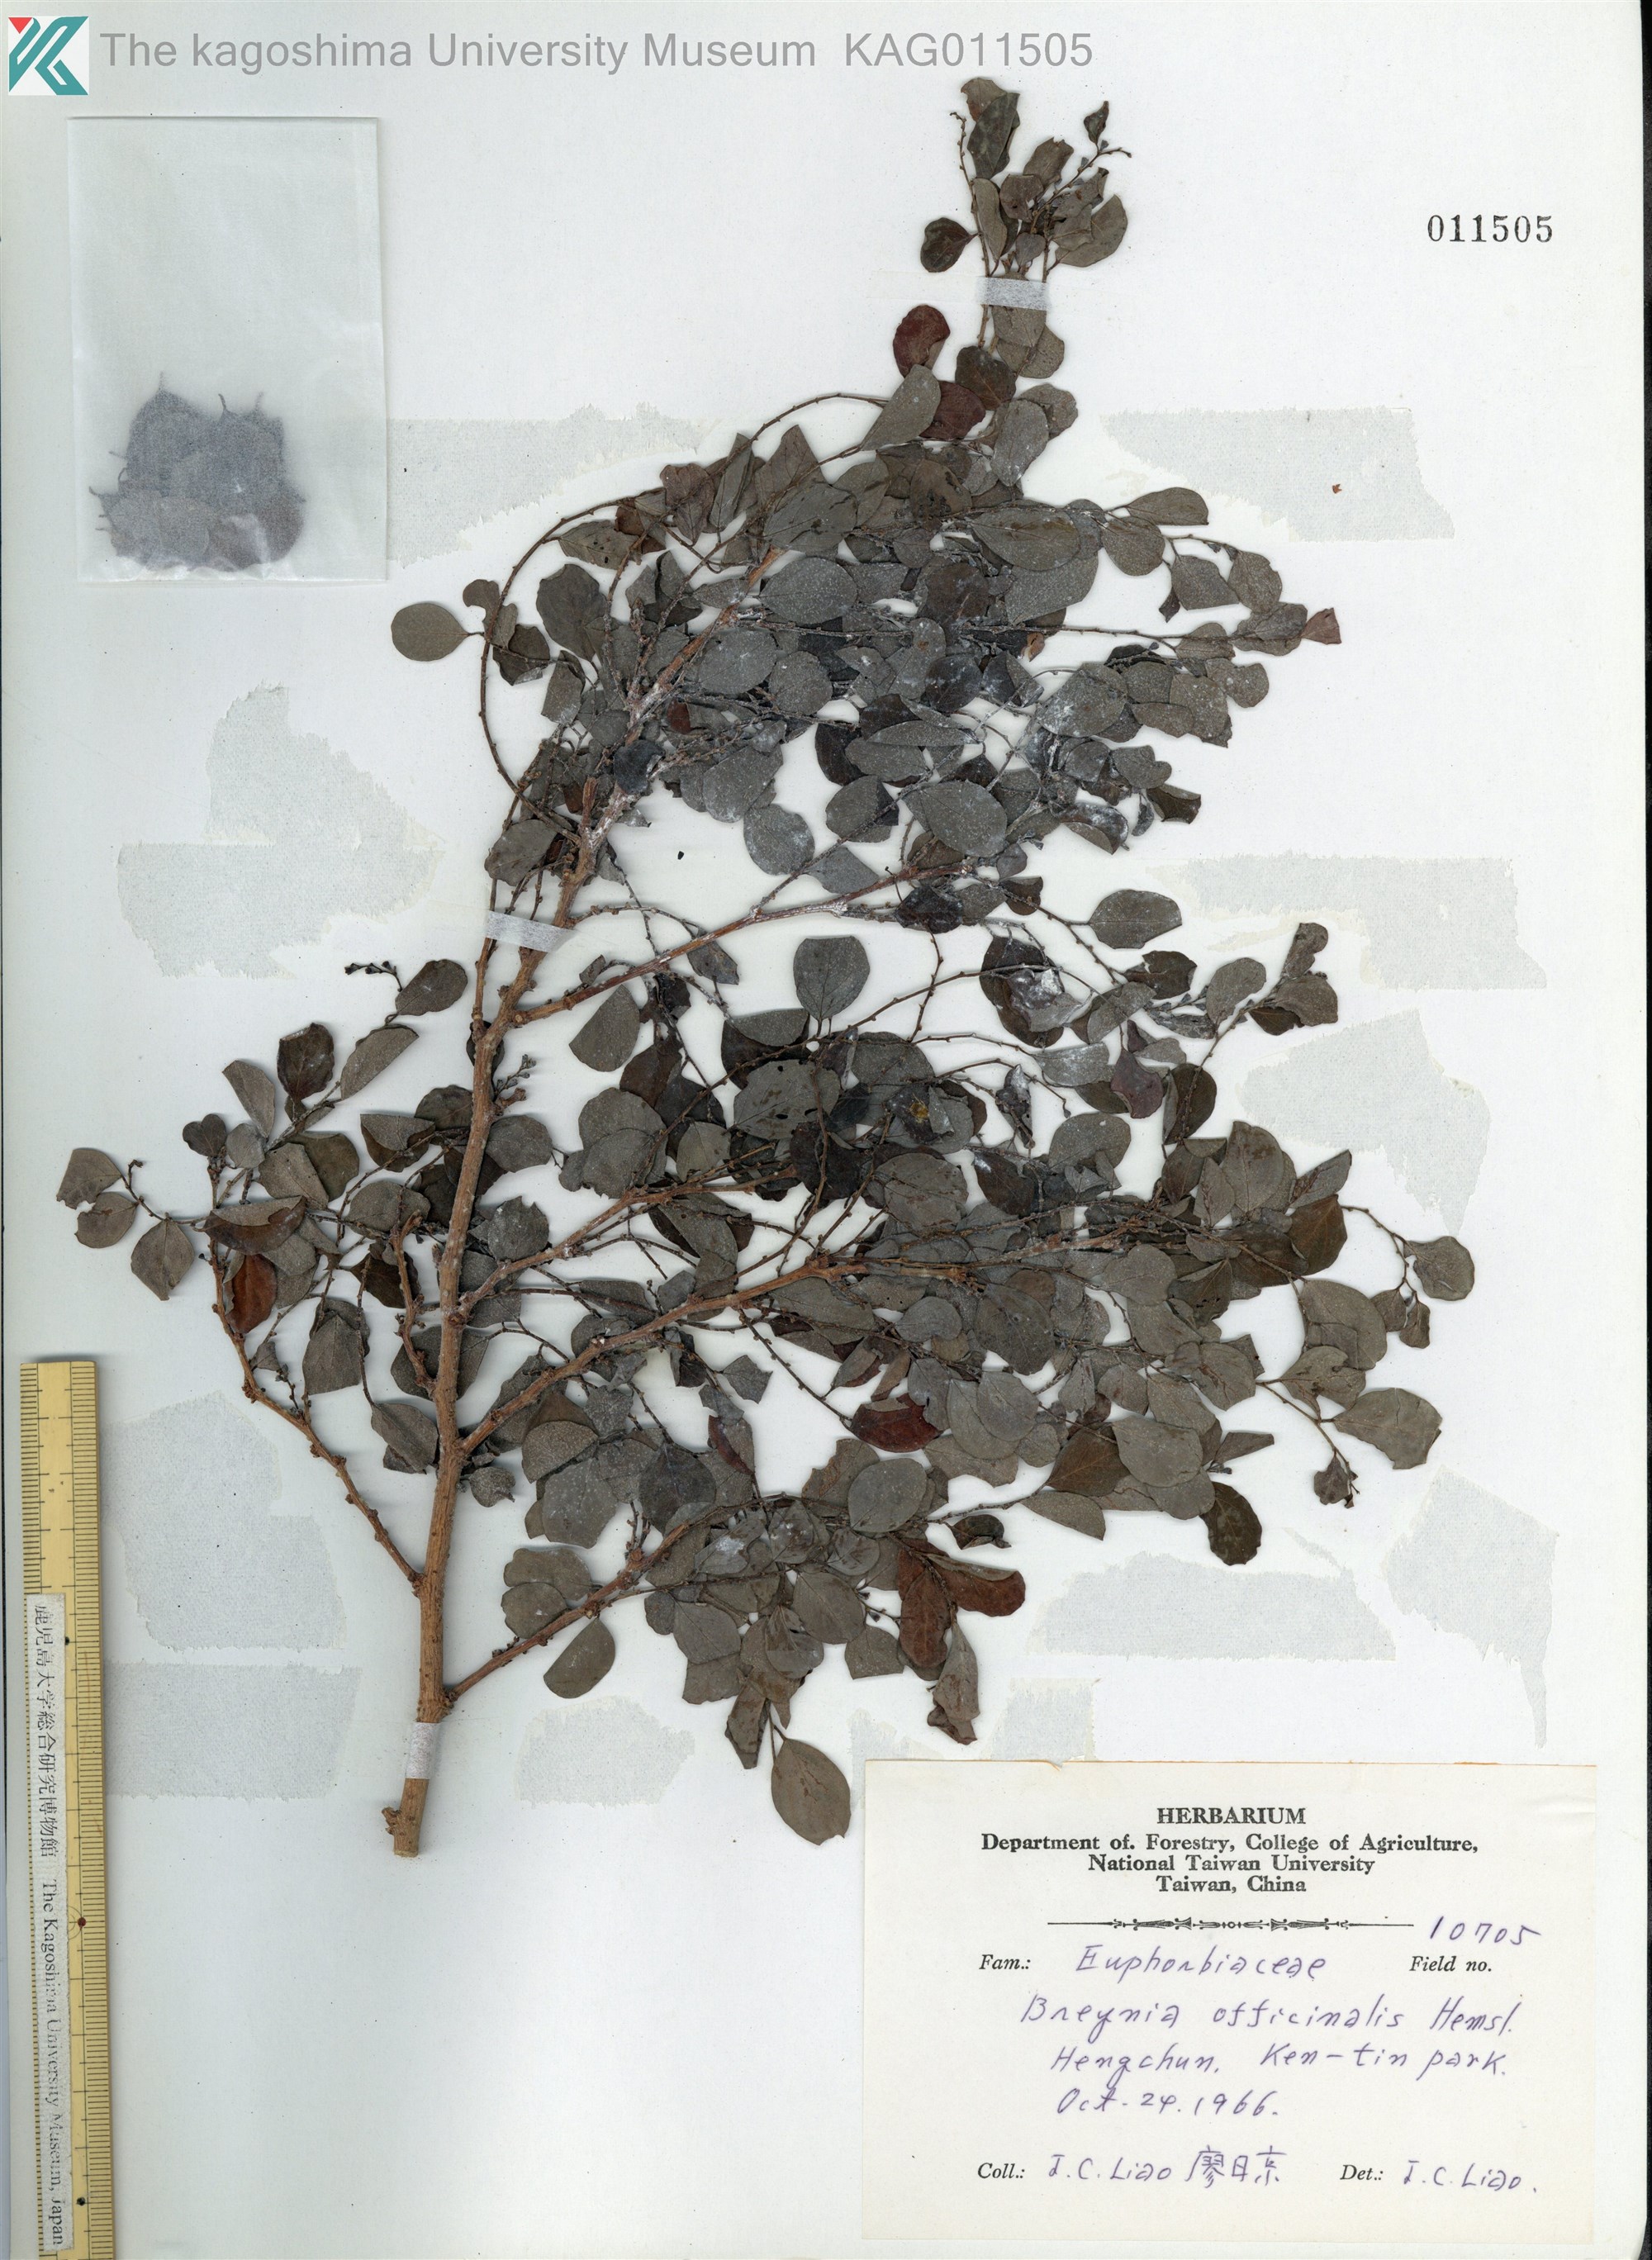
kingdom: Plantae
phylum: Tracheophyta
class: Magnoliopsida
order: Malpighiales
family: Phyllanthaceae
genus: Breynia
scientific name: Breynia officinalis
